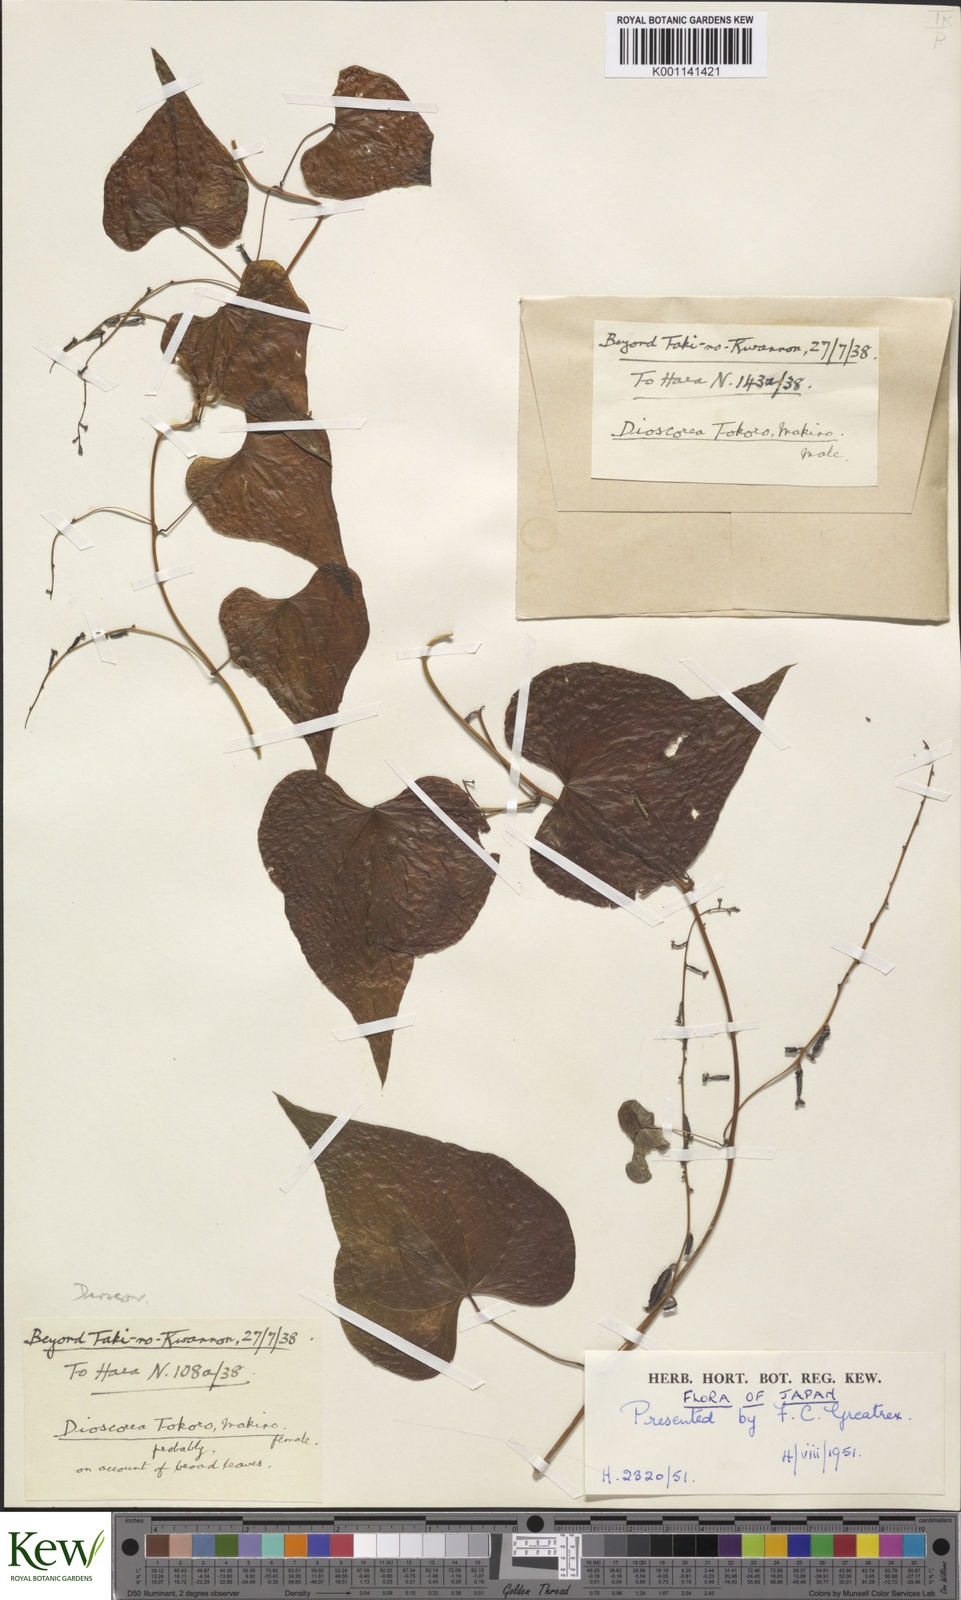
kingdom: Plantae
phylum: Tracheophyta
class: Liliopsida
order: Dioscoreales
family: Dioscoreaceae
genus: Dioscorea
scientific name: Dioscorea tokoro
